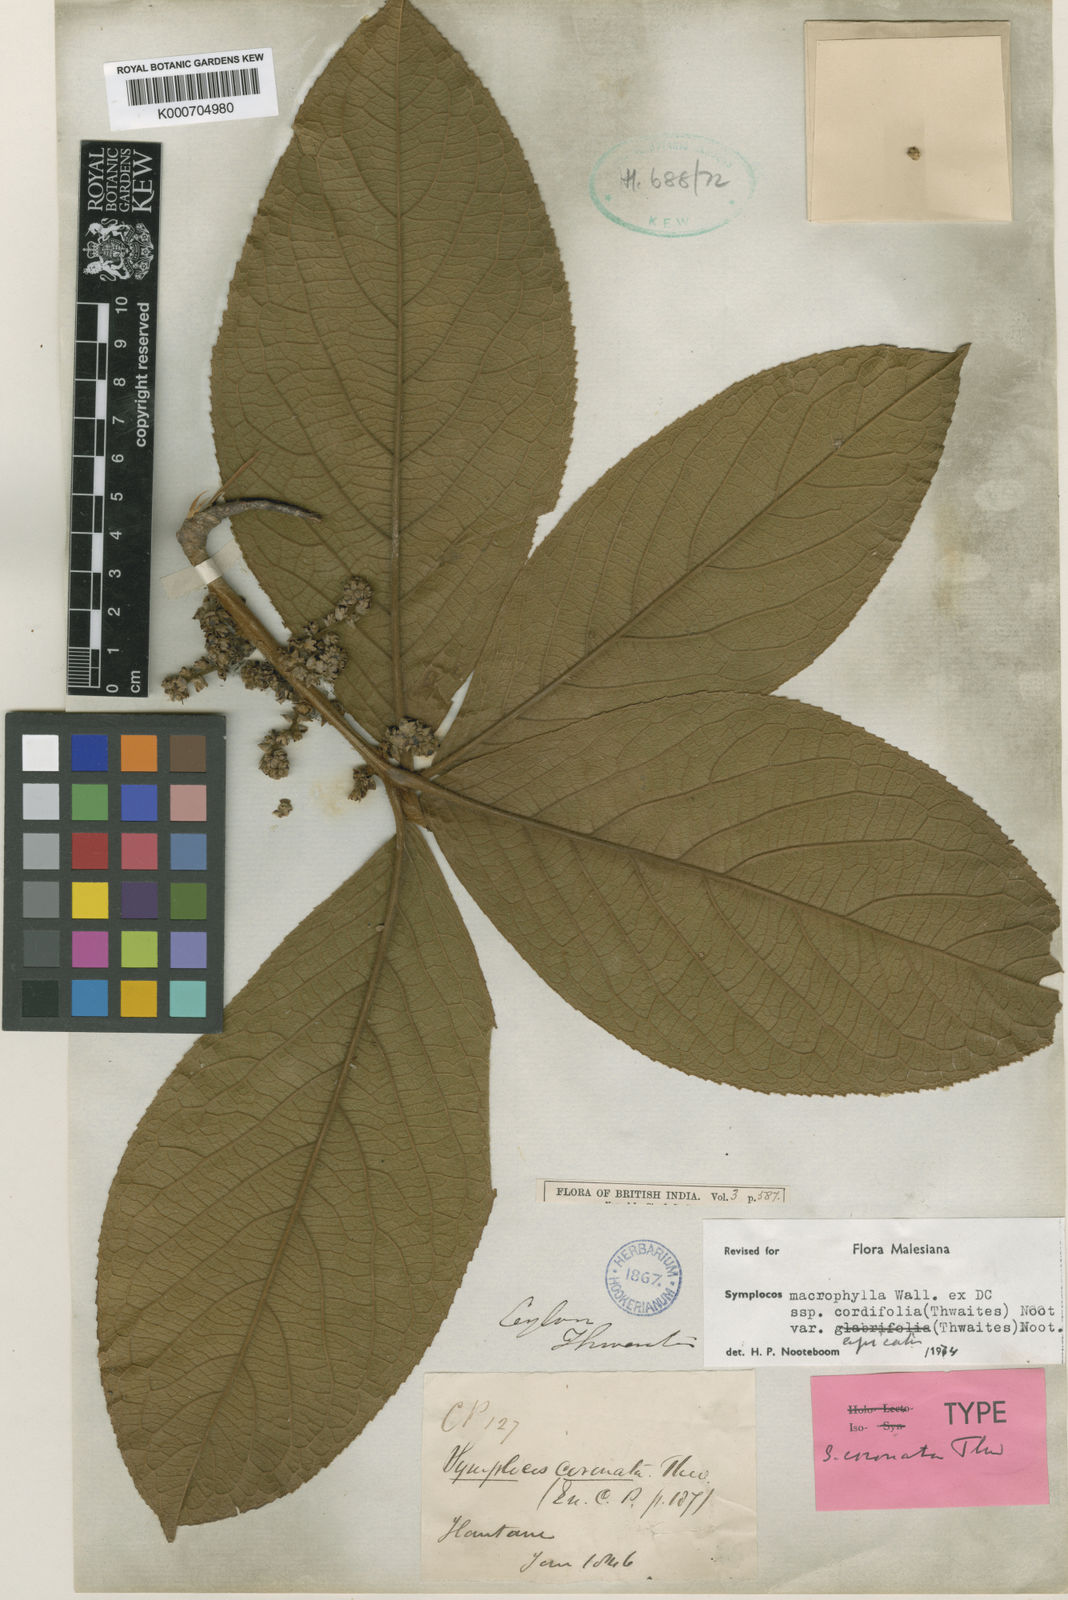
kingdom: Plantae
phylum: Tracheophyta
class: Magnoliopsida
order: Ericales
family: Symplocaceae
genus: Symplocos
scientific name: Symplocos
